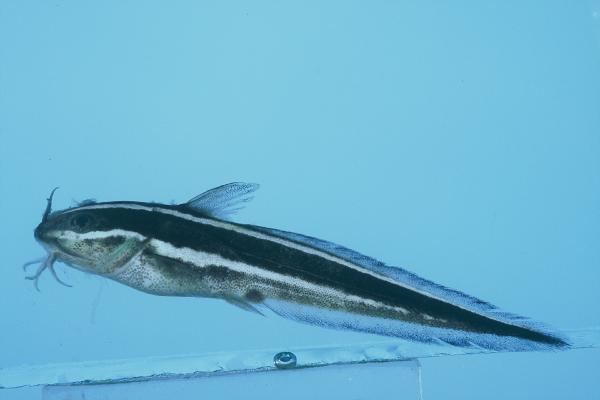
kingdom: Animalia
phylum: Chordata
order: Siluriformes
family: Plotosidae
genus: Plotosus
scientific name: Plotosus lineatus
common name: Striped eel catfish
